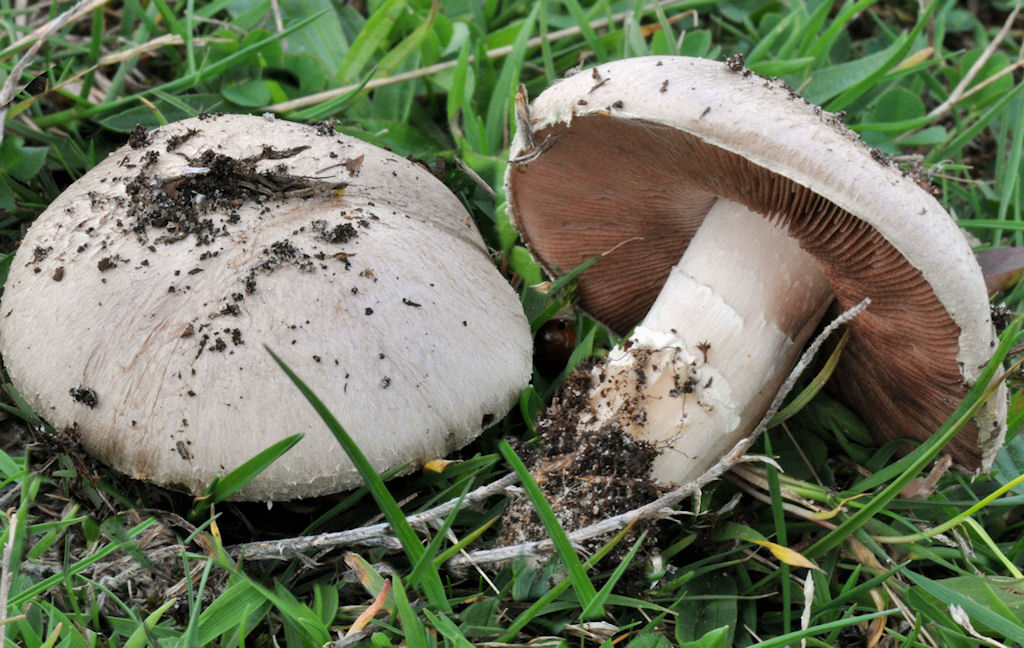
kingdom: Fungi
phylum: Basidiomycota
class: Agaricomycetes
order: Agaricales
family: Agaricaceae
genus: Agaricus
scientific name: Agaricus campestris
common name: mark-champignon
